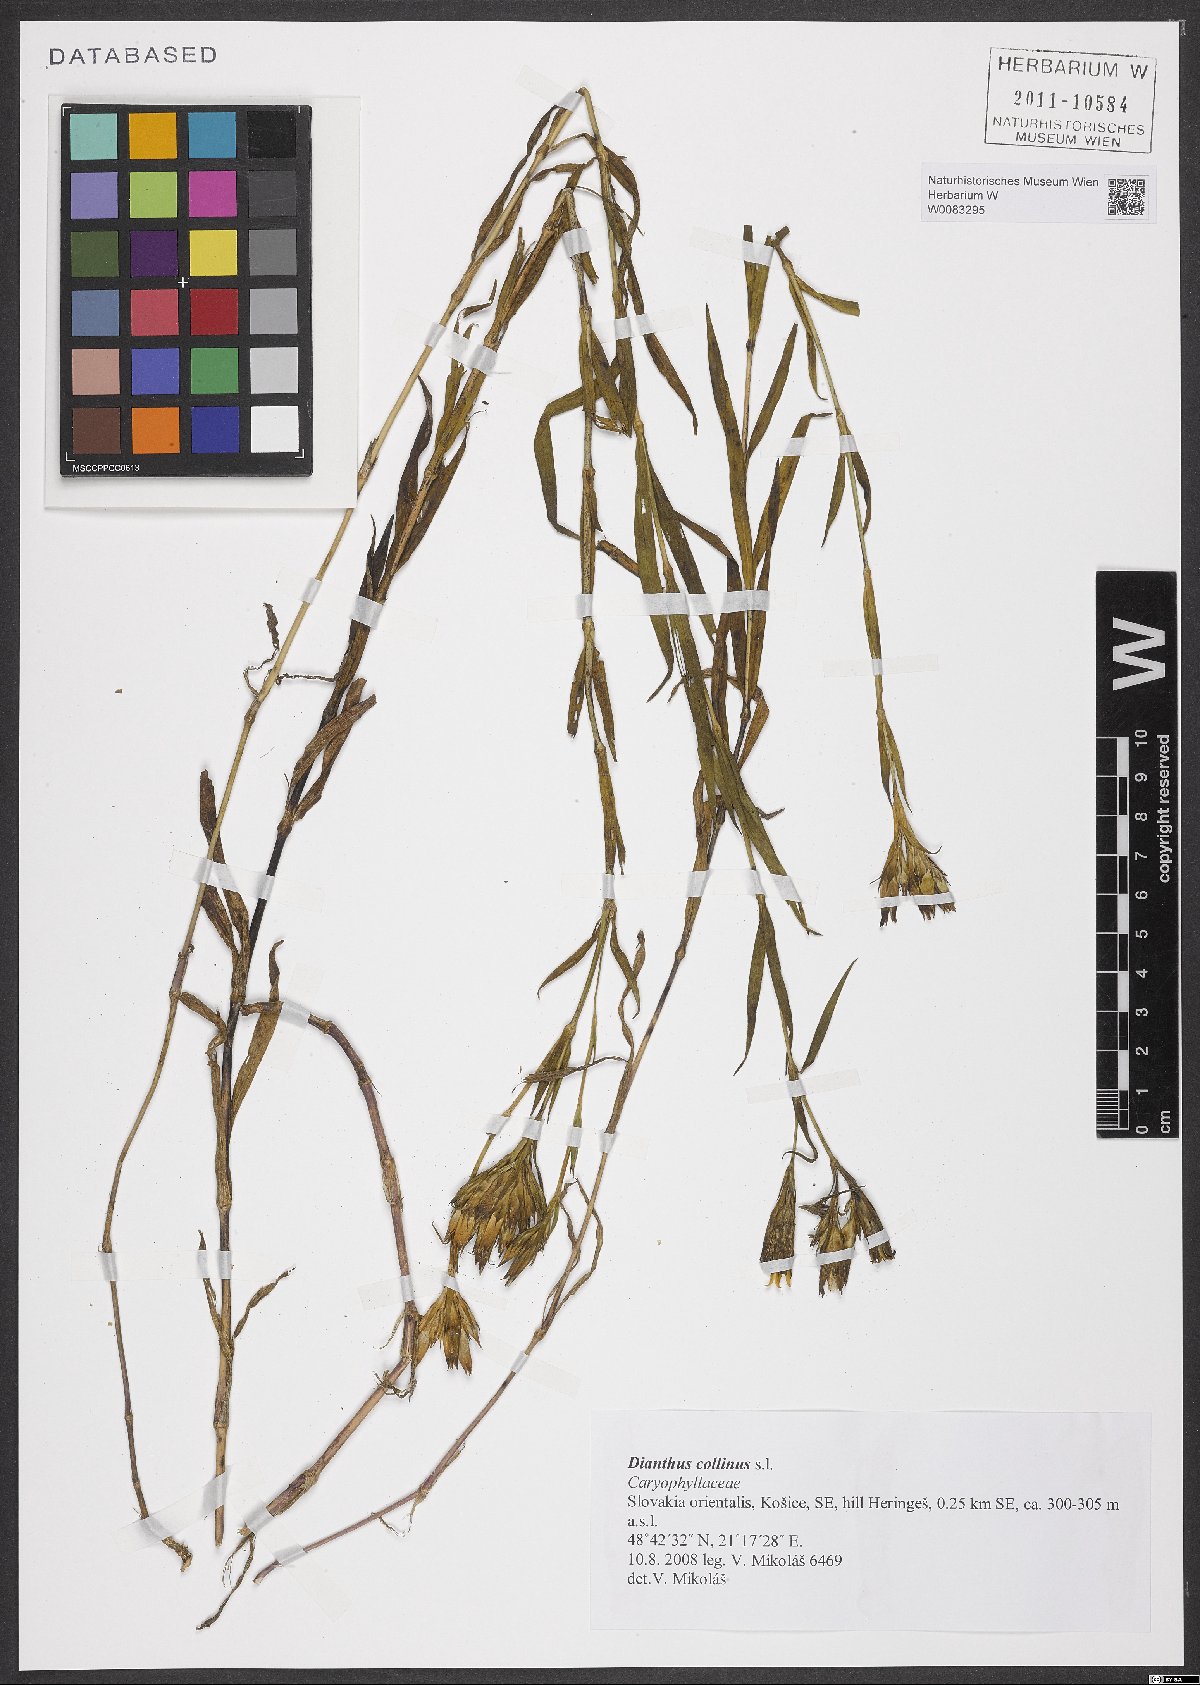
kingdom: Plantae
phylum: Tracheophyta
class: Magnoliopsida
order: Caryophyllales
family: Caryophyllaceae
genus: Dianthus
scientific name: Dianthus collinus
